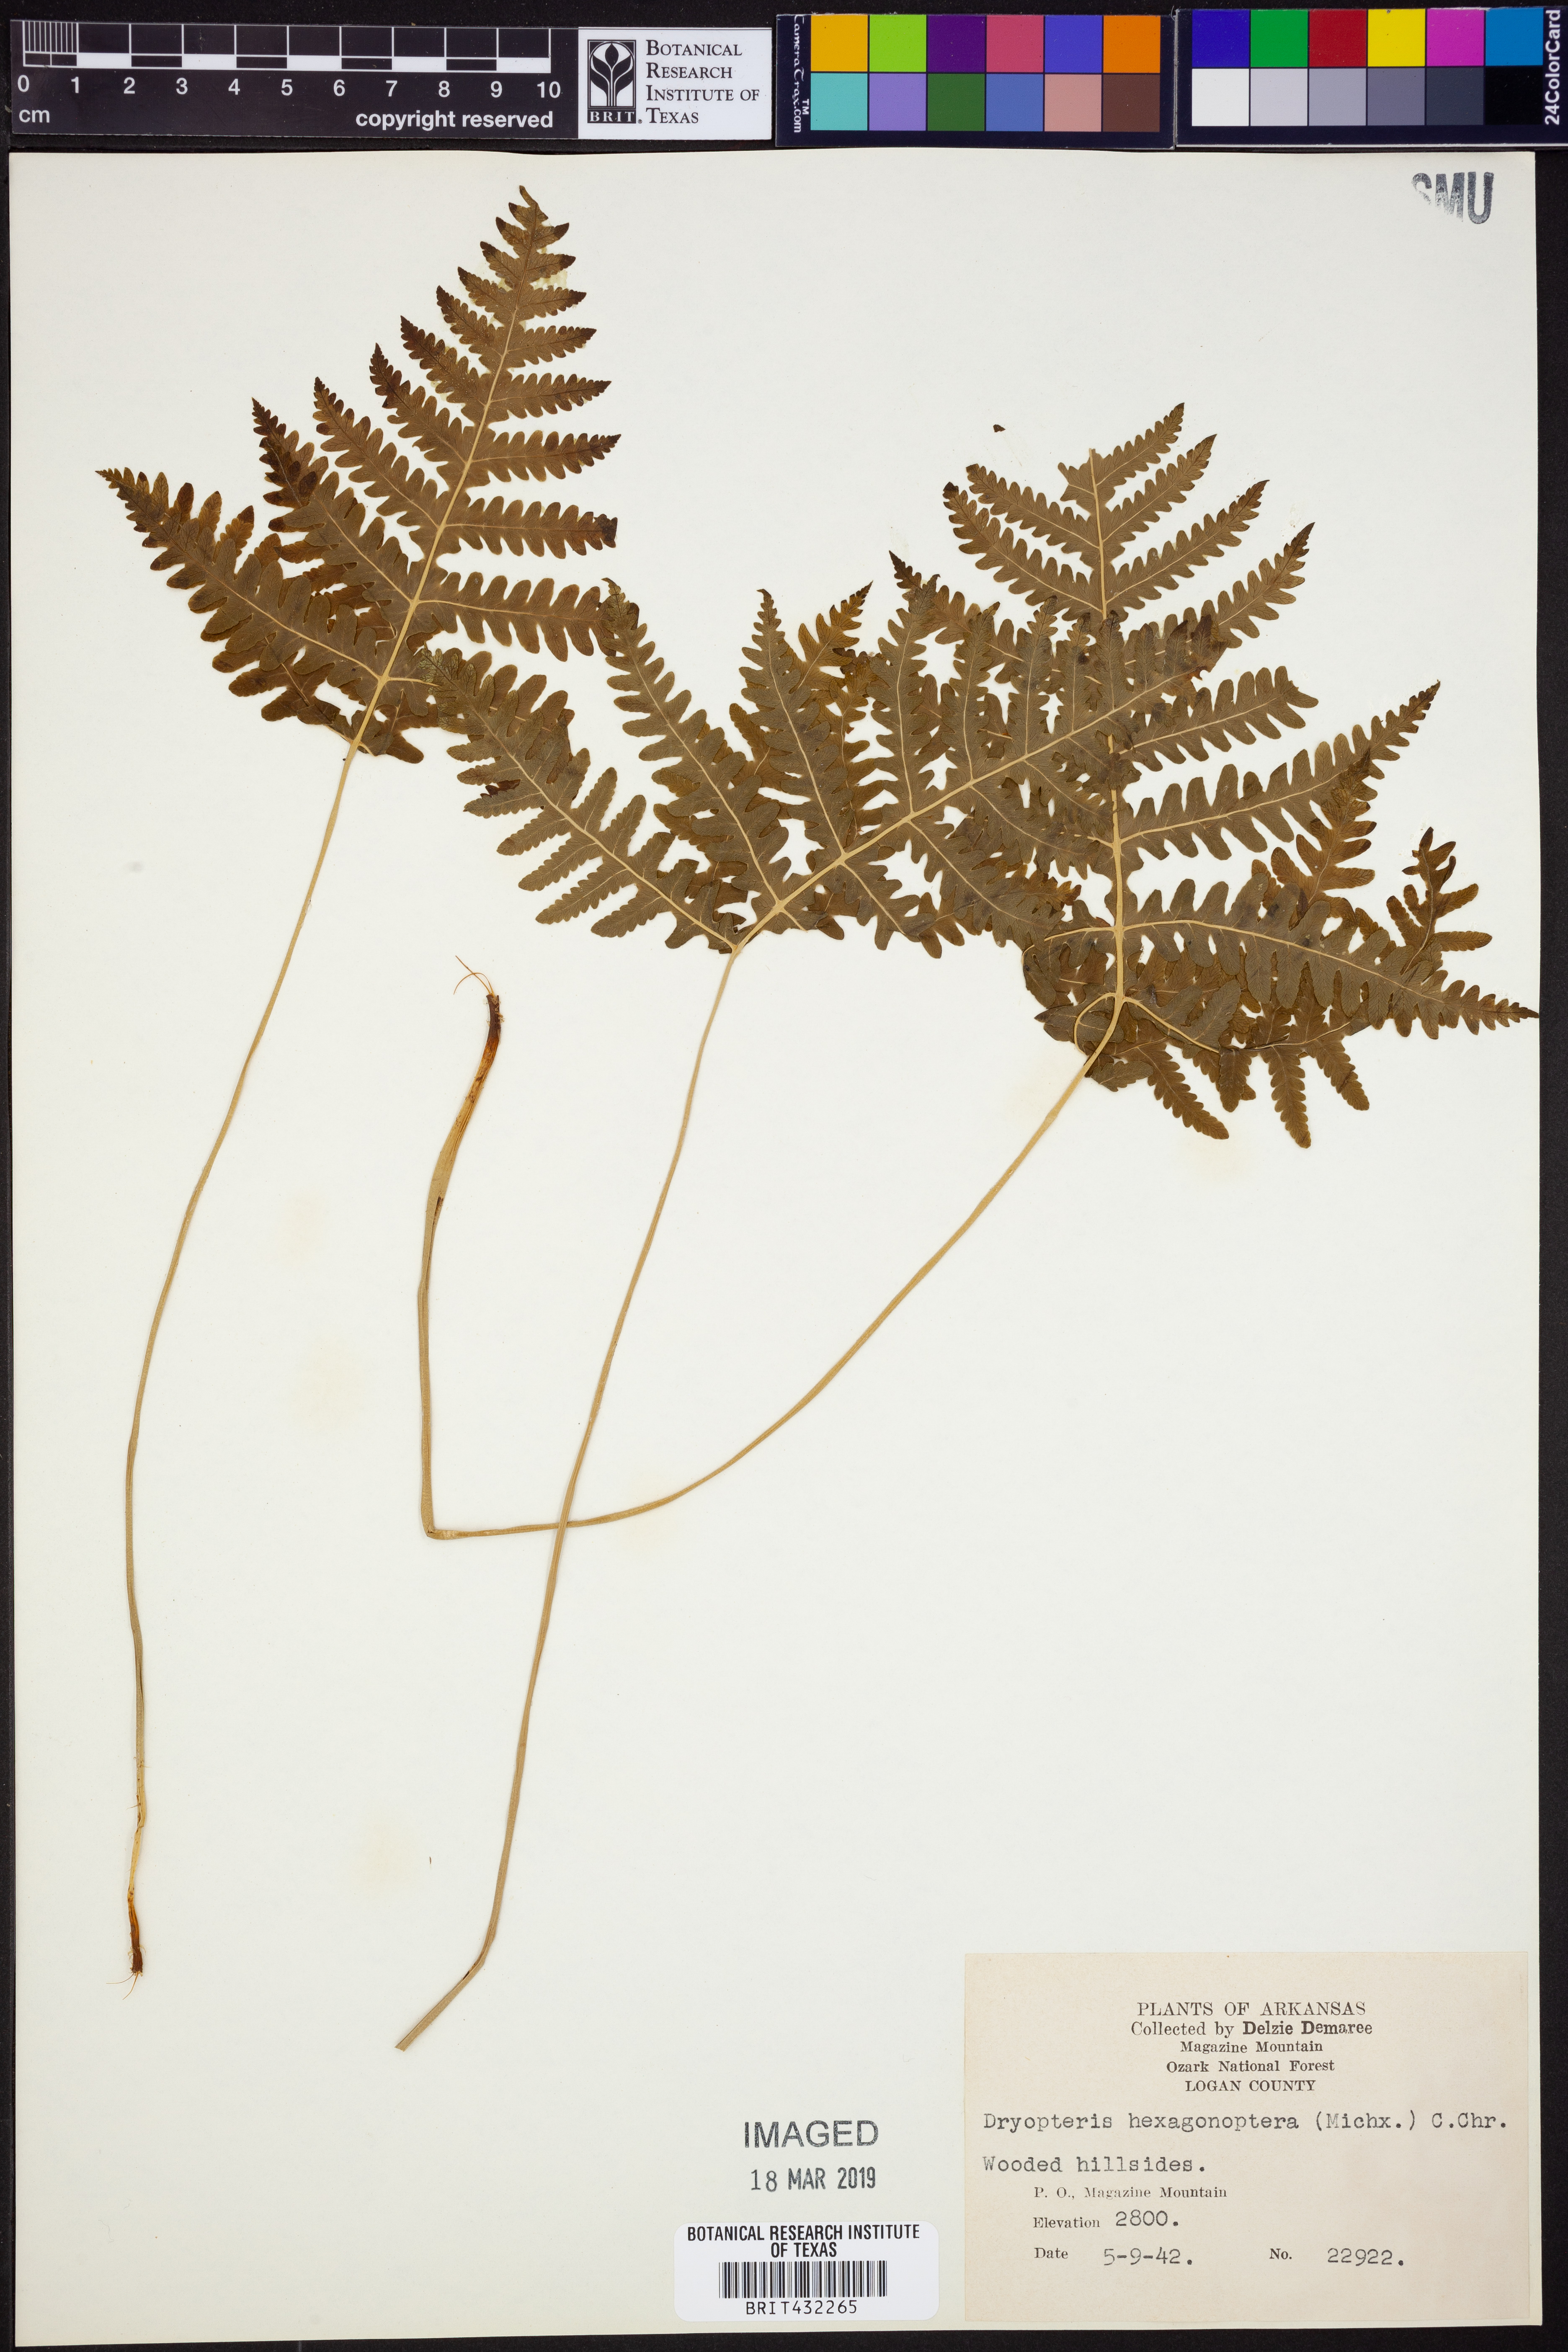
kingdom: Plantae
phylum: Tracheophyta
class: Polypodiopsida
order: Polypodiales
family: Dryopteridaceae
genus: Dryopteris
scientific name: Dryopteris hexagonaptera
